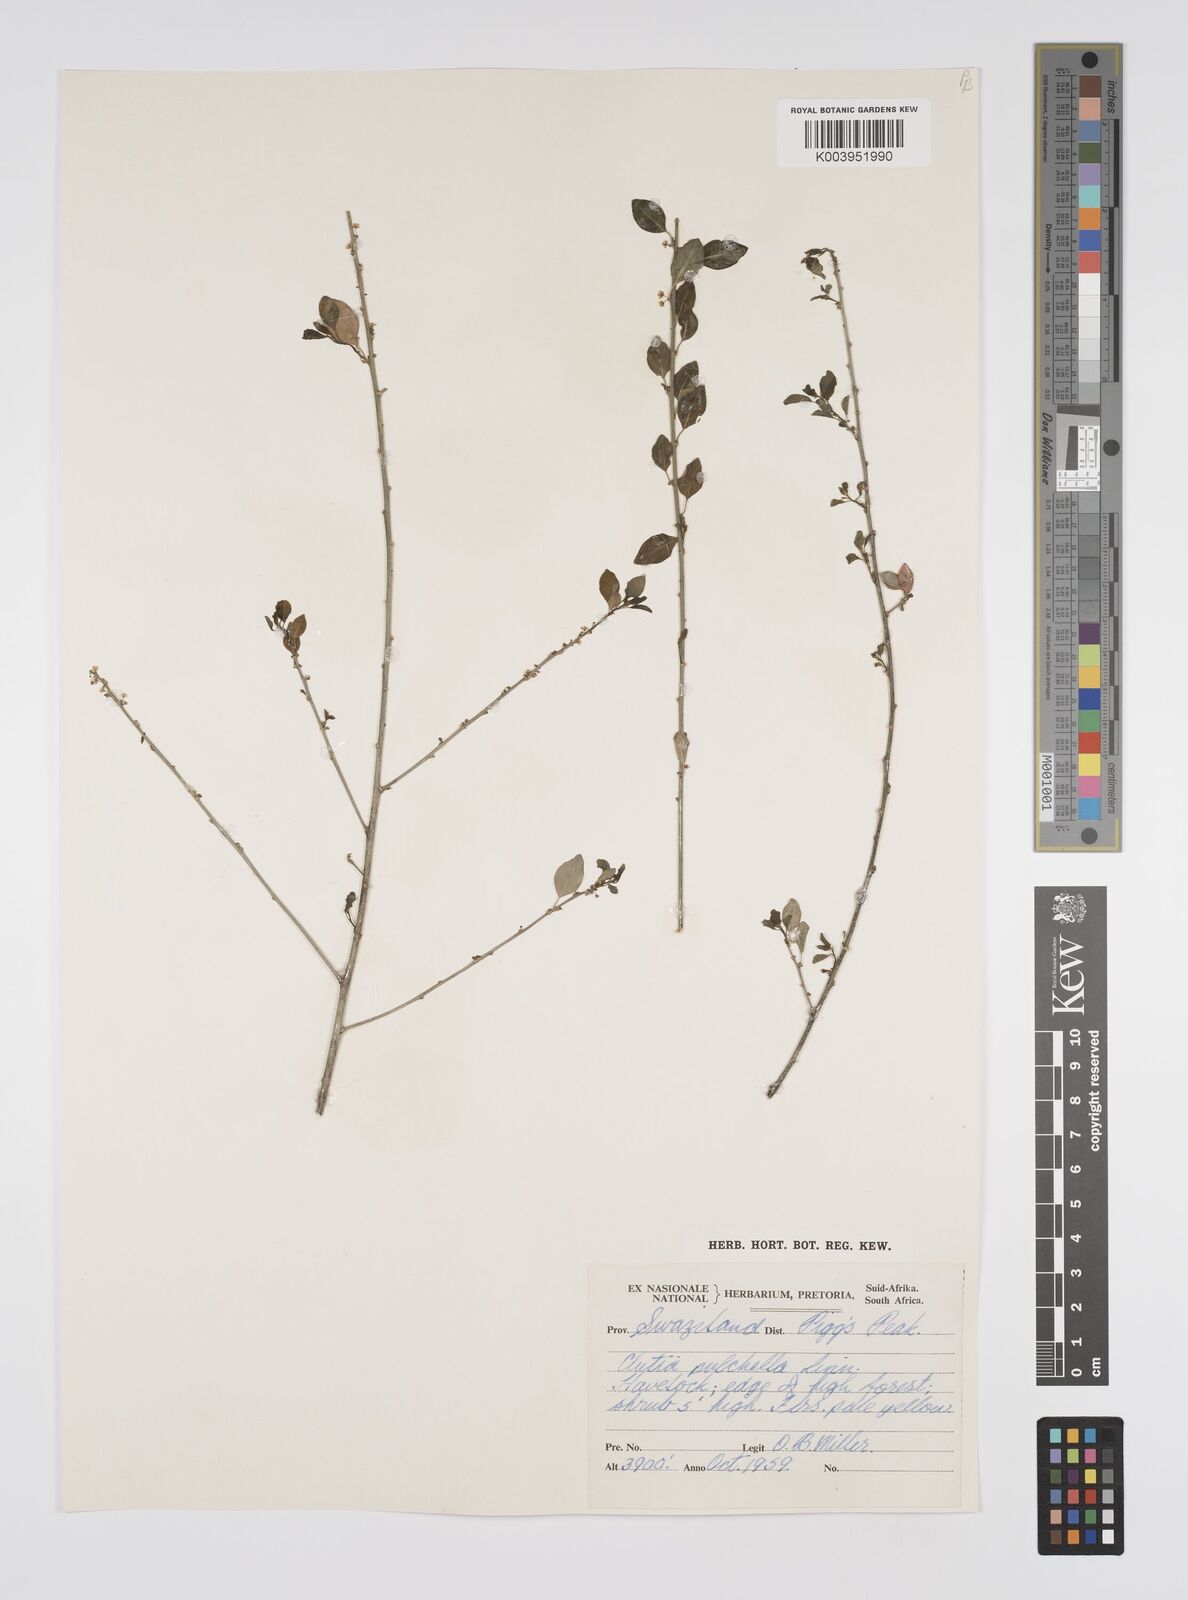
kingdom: Plantae
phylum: Tracheophyta
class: Magnoliopsida
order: Malpighiales
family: Peraceae
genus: Clutia
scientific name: Clutia pulchella
